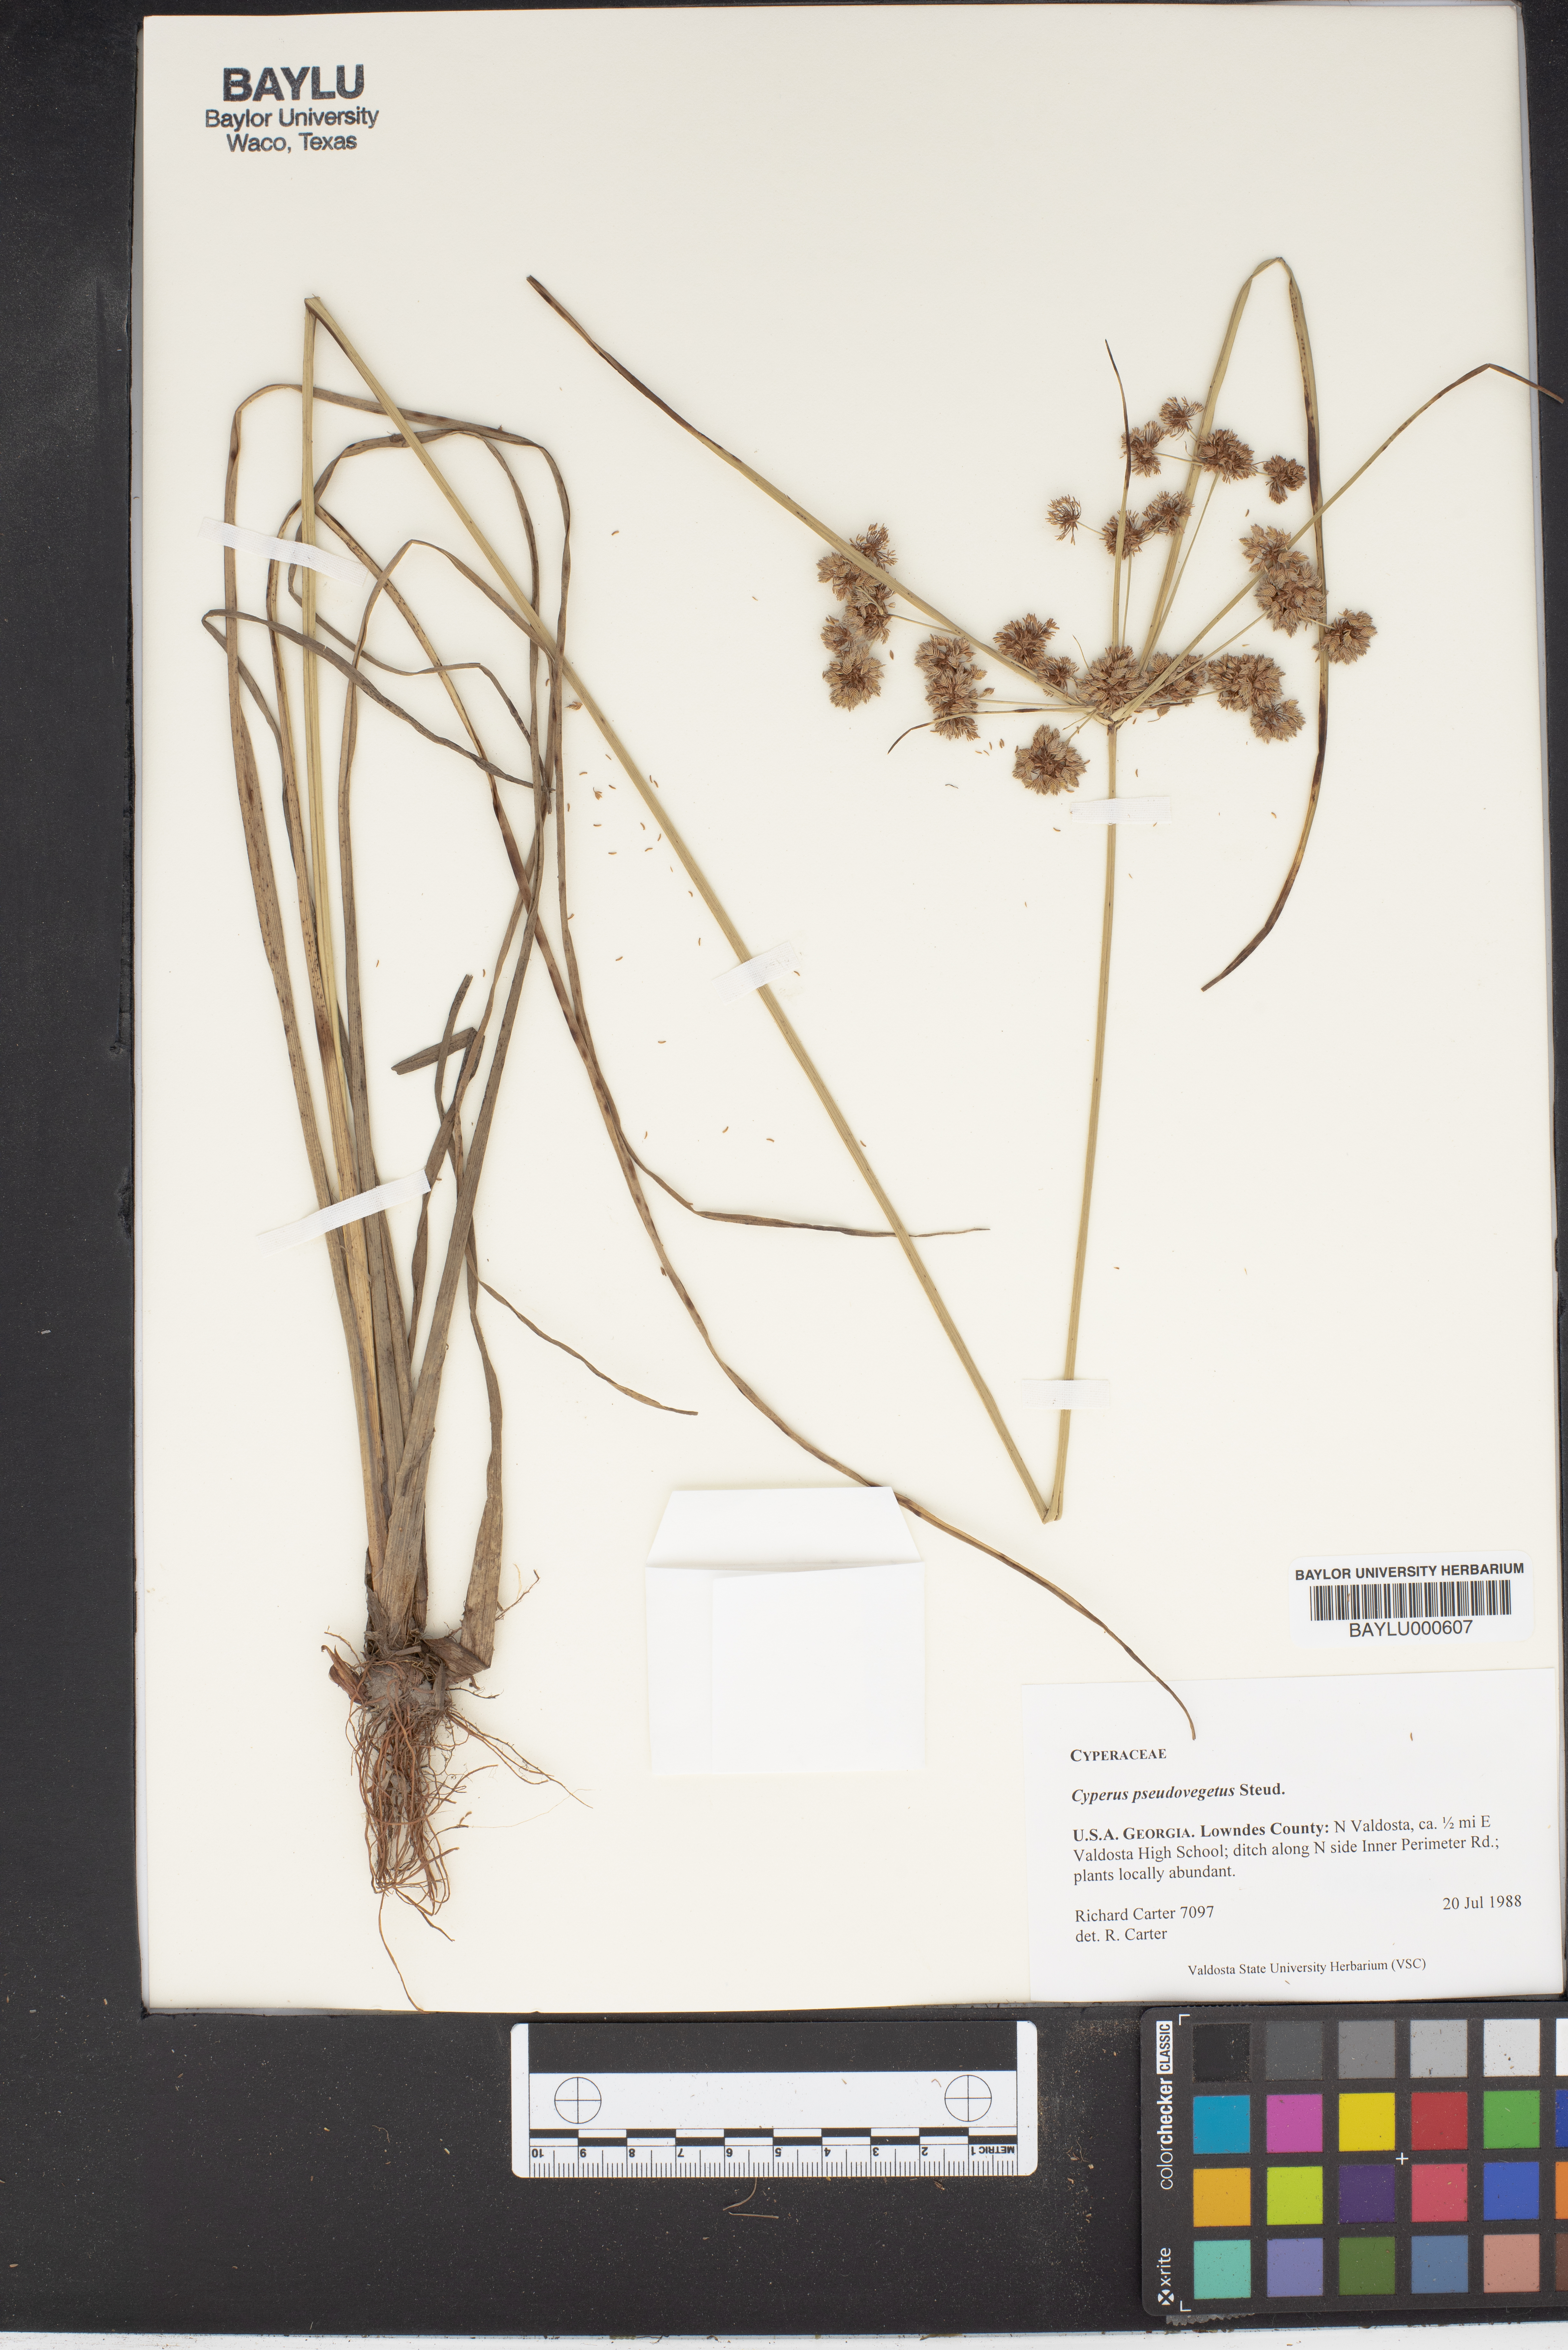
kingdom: Plantae
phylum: Tracheophyta
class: Liliopsida
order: Poales
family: Cyperaceae
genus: Cyperus
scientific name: Cyperus pseudovegetus
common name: Marsh flat sedge
